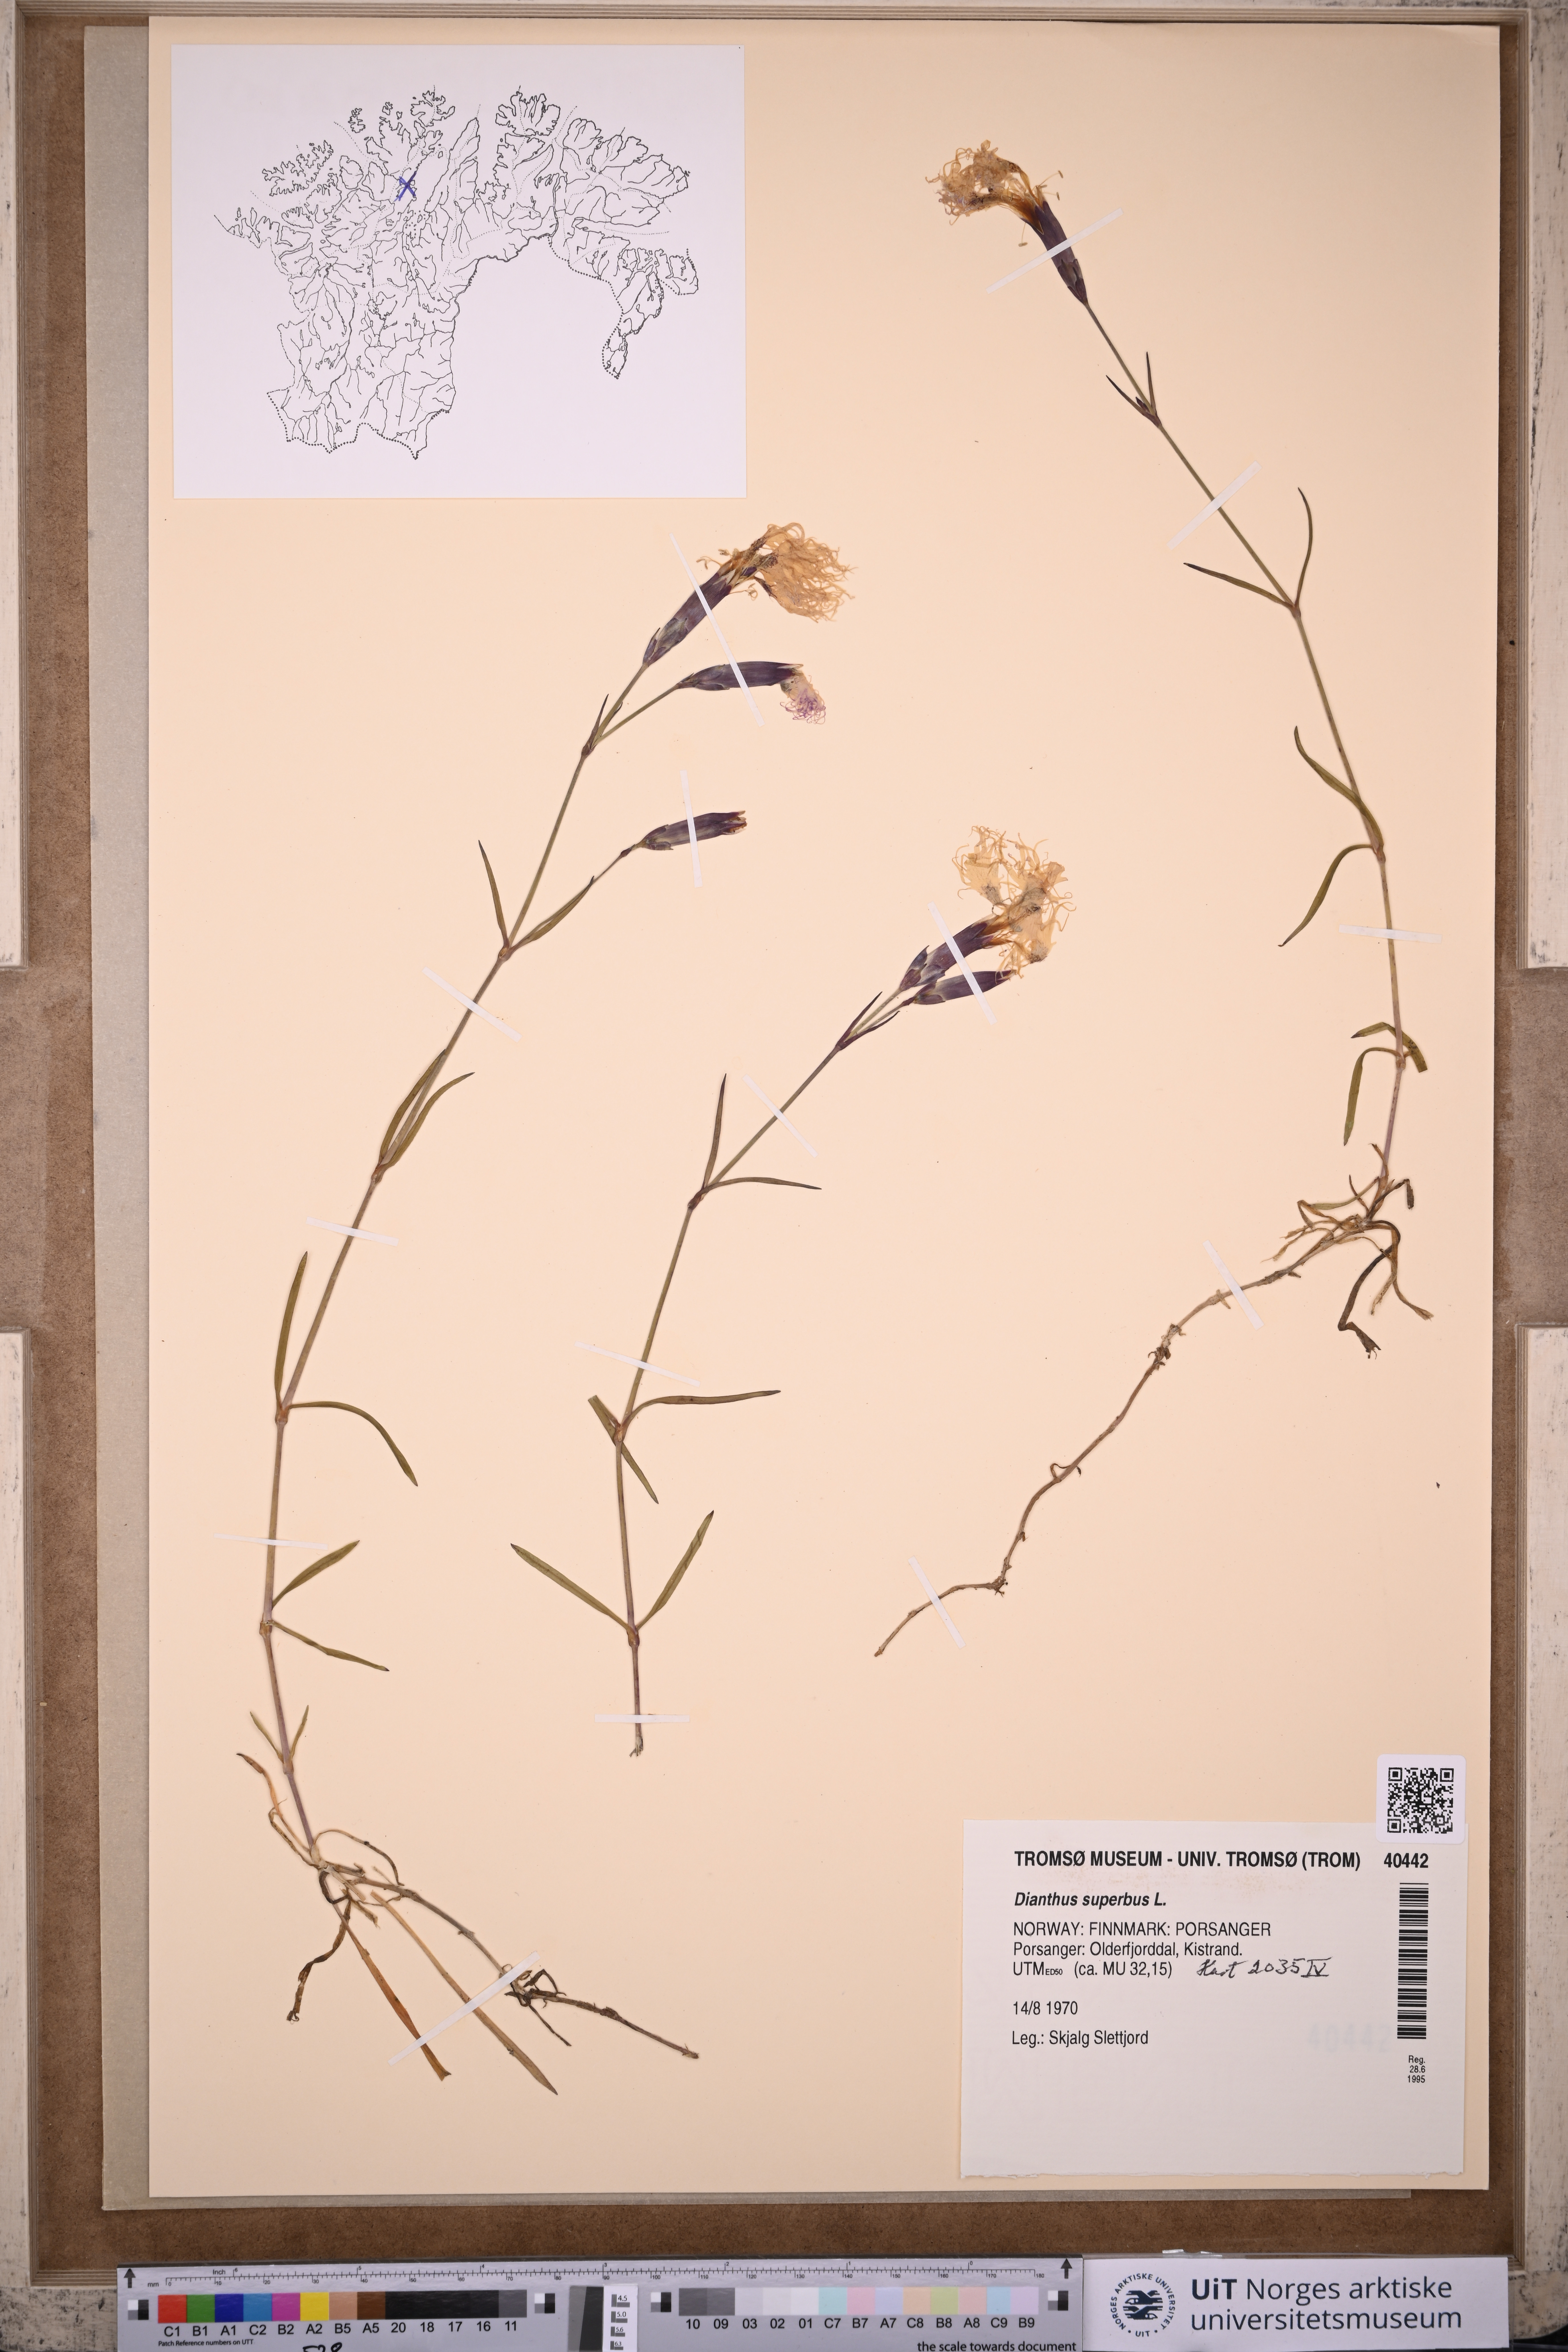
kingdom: Plantae
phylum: Tracheophyta
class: Magnoliopsida
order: Caryophyllales
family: Caryophyllaceae
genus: Dianthus
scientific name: Dianthus superbus
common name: Fringed pink
